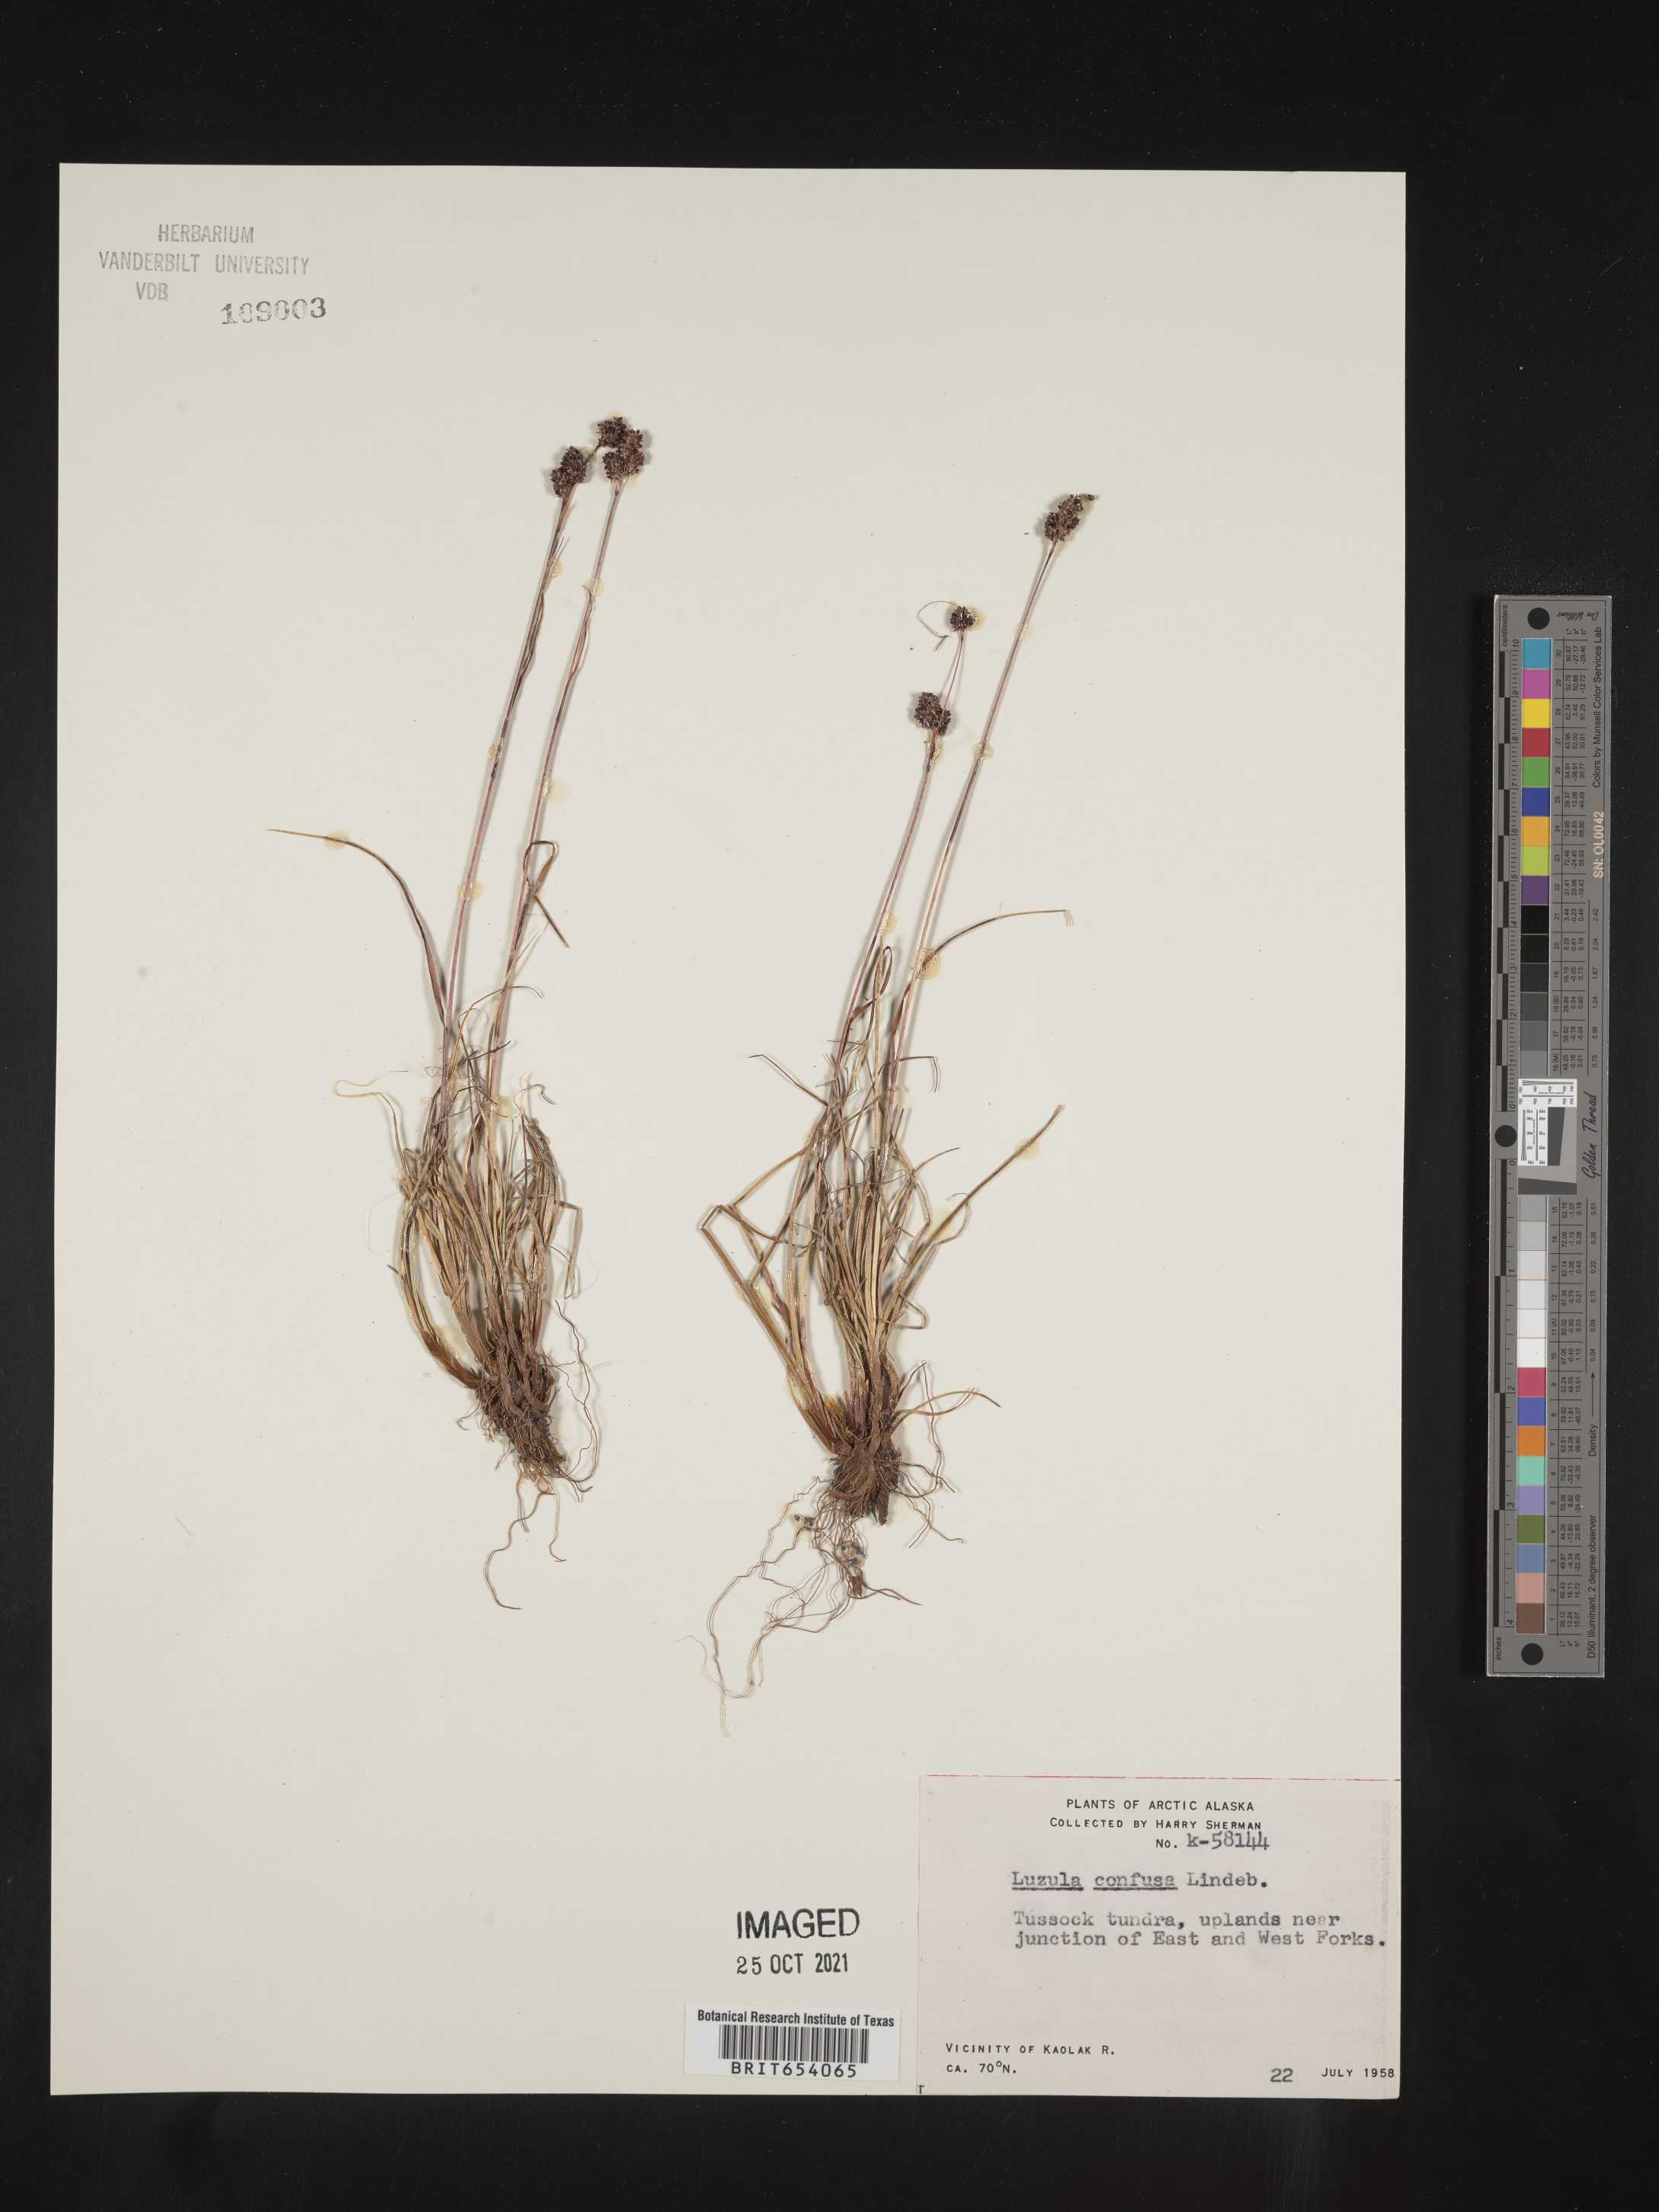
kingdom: Plantae
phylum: Tracheophyta
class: Liliopsida
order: Poales
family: Juncaceae
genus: Luzula
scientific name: Luzula confusa
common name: Northern wood rush
